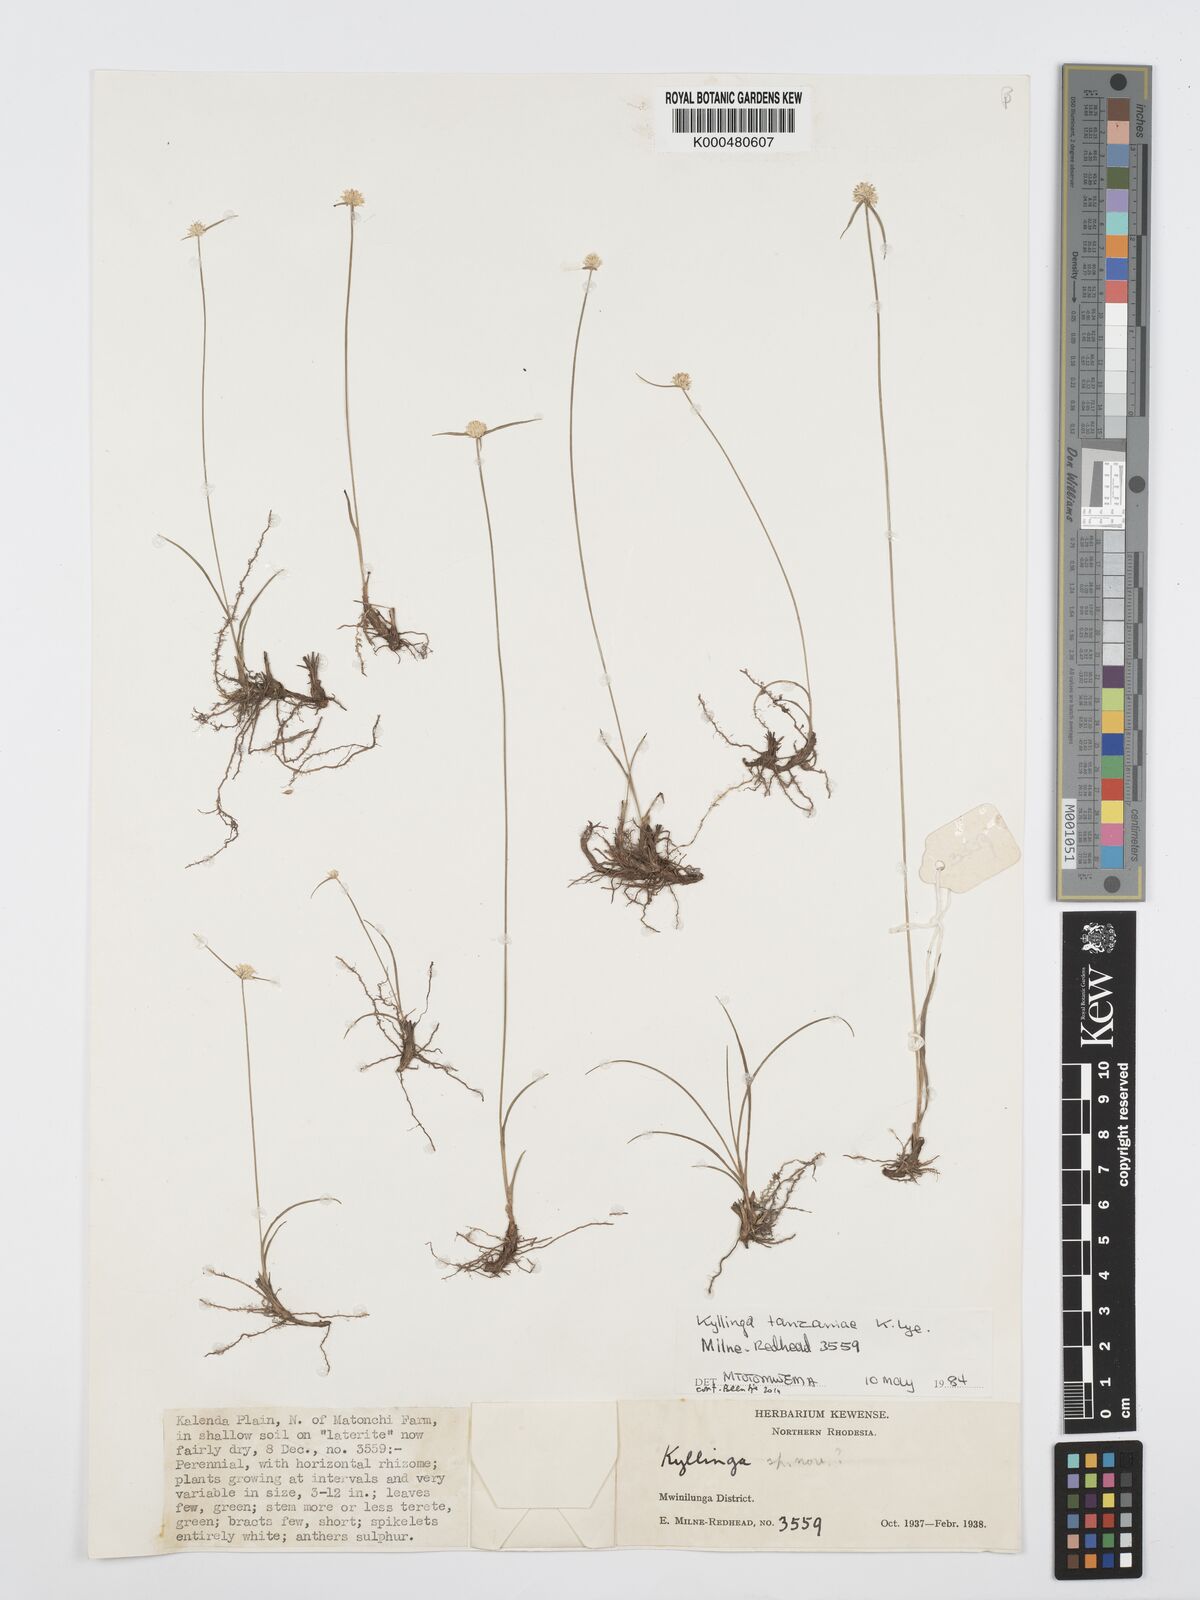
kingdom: Plantae
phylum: Tracheophyta
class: Liliopsida
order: Poales
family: Cyperaceae
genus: Cyperus
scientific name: Cyperus tanzaniae
